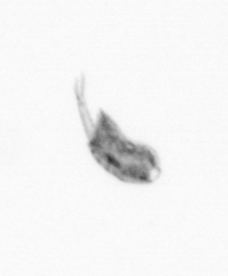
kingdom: Animalia
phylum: Arthropoda
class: Copepoda
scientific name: Copepoda
